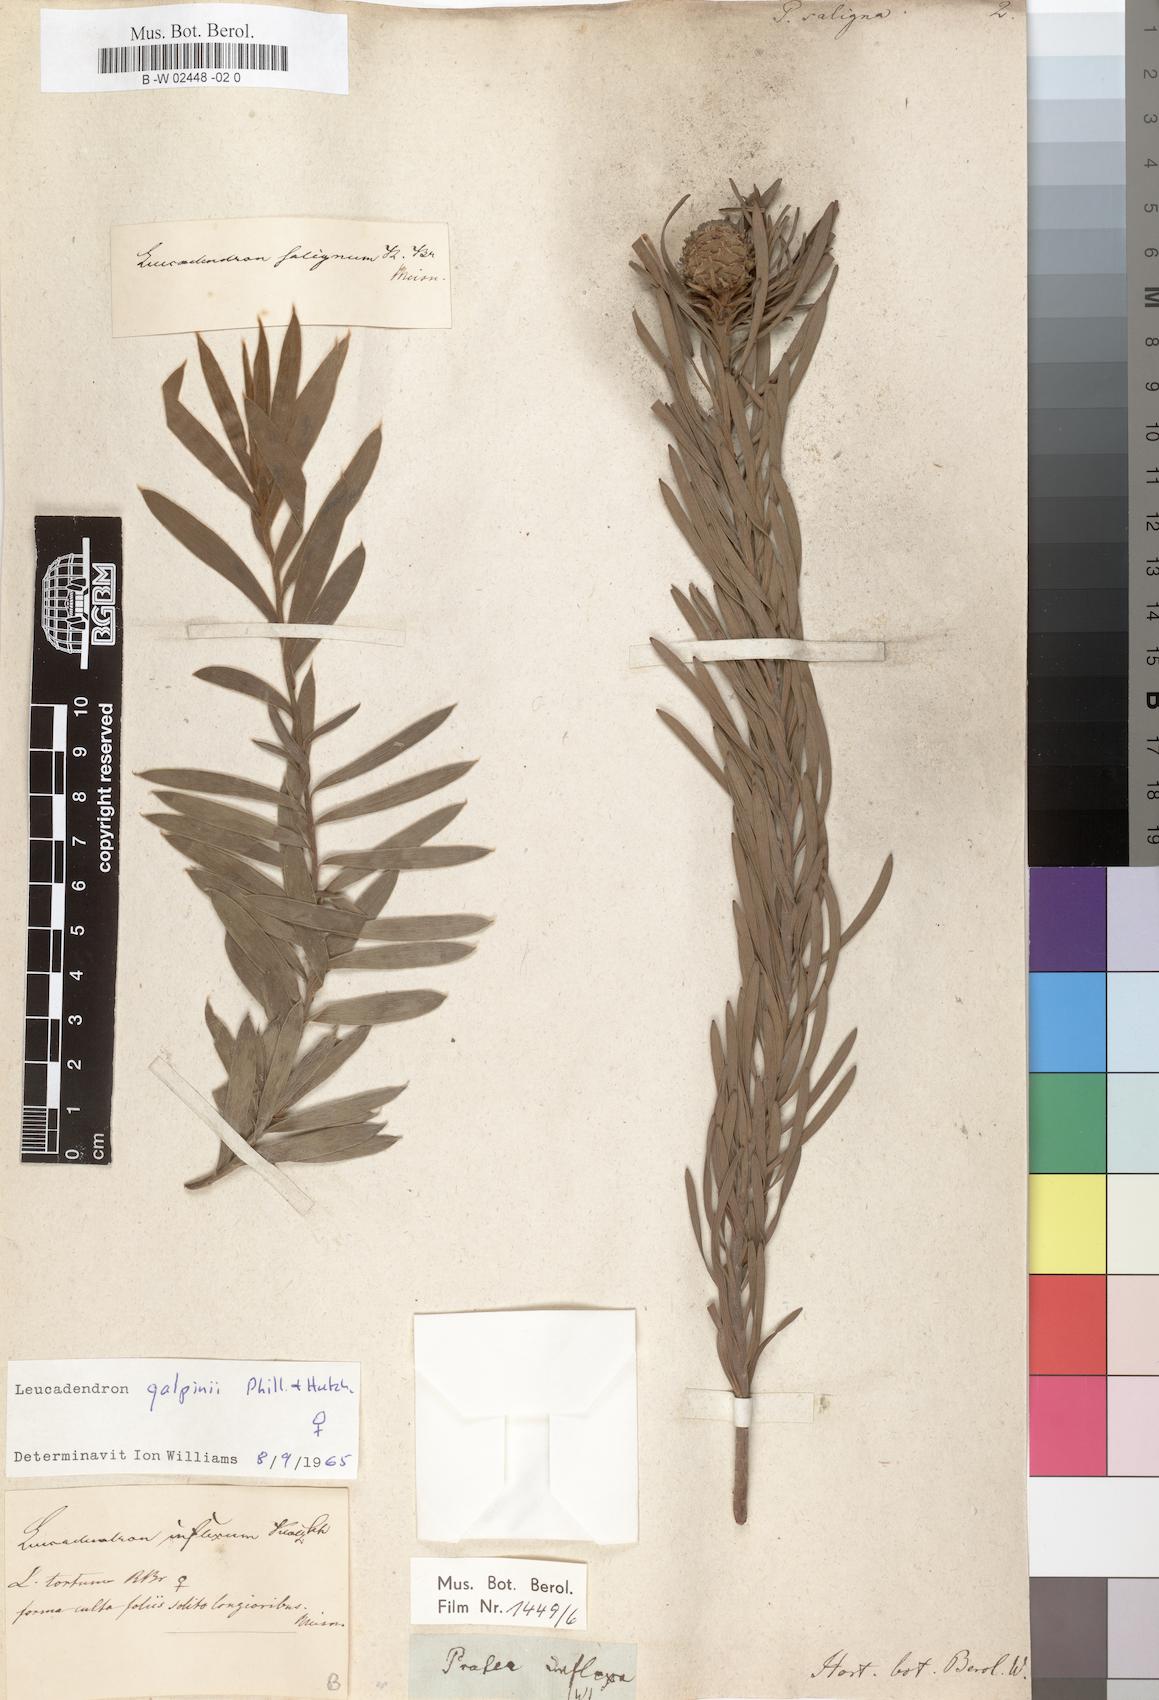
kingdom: Plantae
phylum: Tracheophyta
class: Magnoliopsida
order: Proteales
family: Proteaceae
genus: Leucadendron
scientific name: Leucadendron
